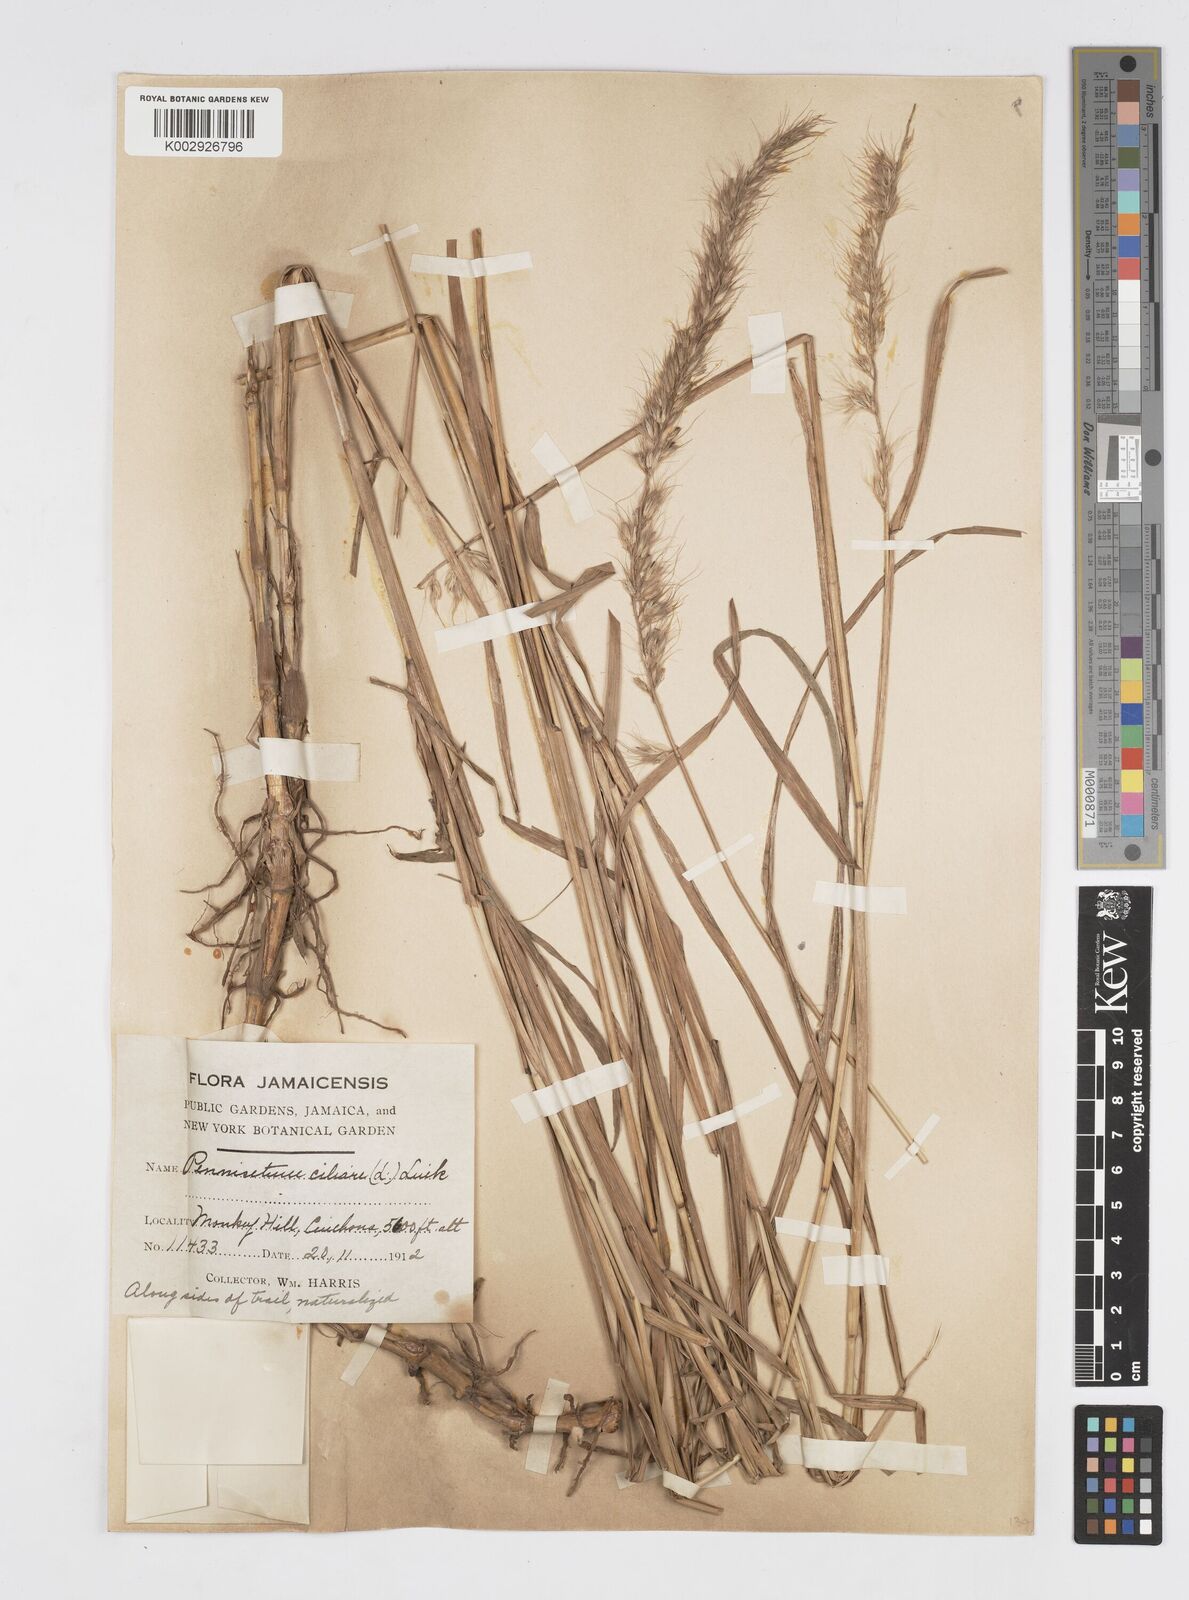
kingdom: Plantae
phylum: Tracheophyta
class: Liliopsida
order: Poales
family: Poaceae
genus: Cenchrus
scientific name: Cenchrus Pennisetum spec
